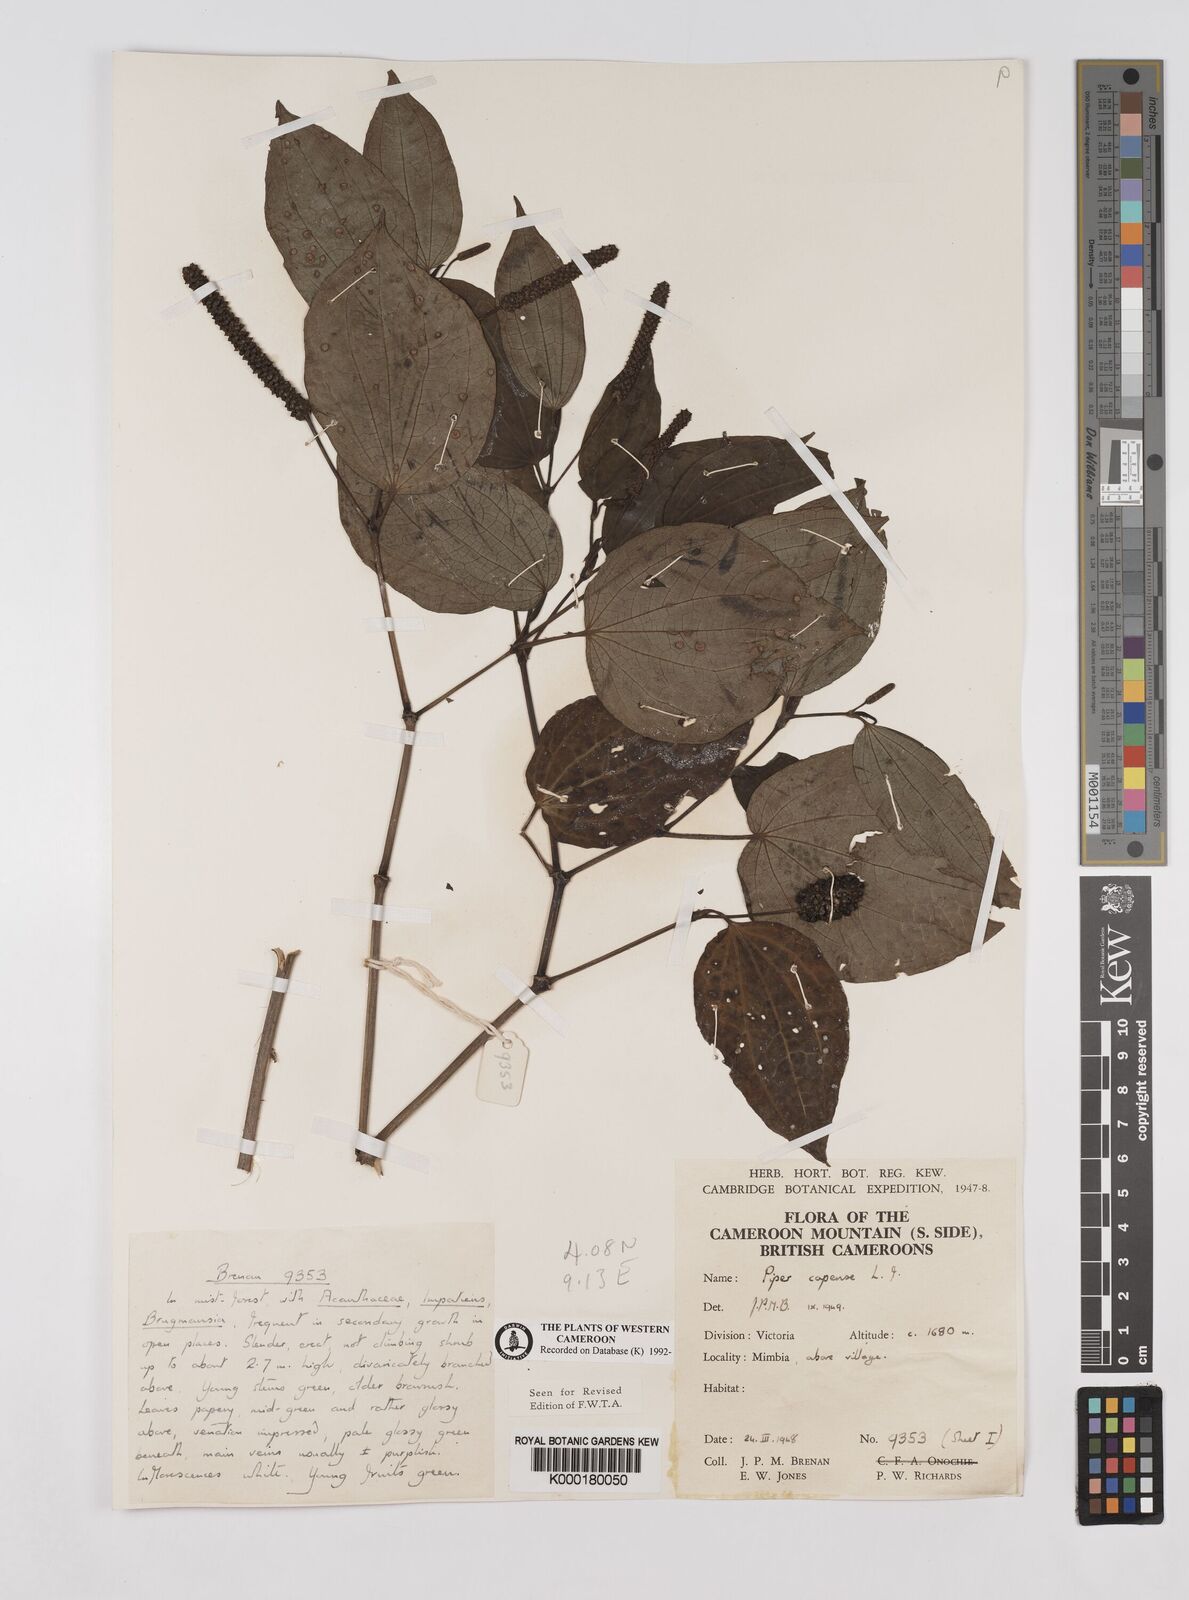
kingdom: Plantae
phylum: Tracheophyta
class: Magnoliopsida
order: Piperales
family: Piperaceae
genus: Piper
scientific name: Piper capense
